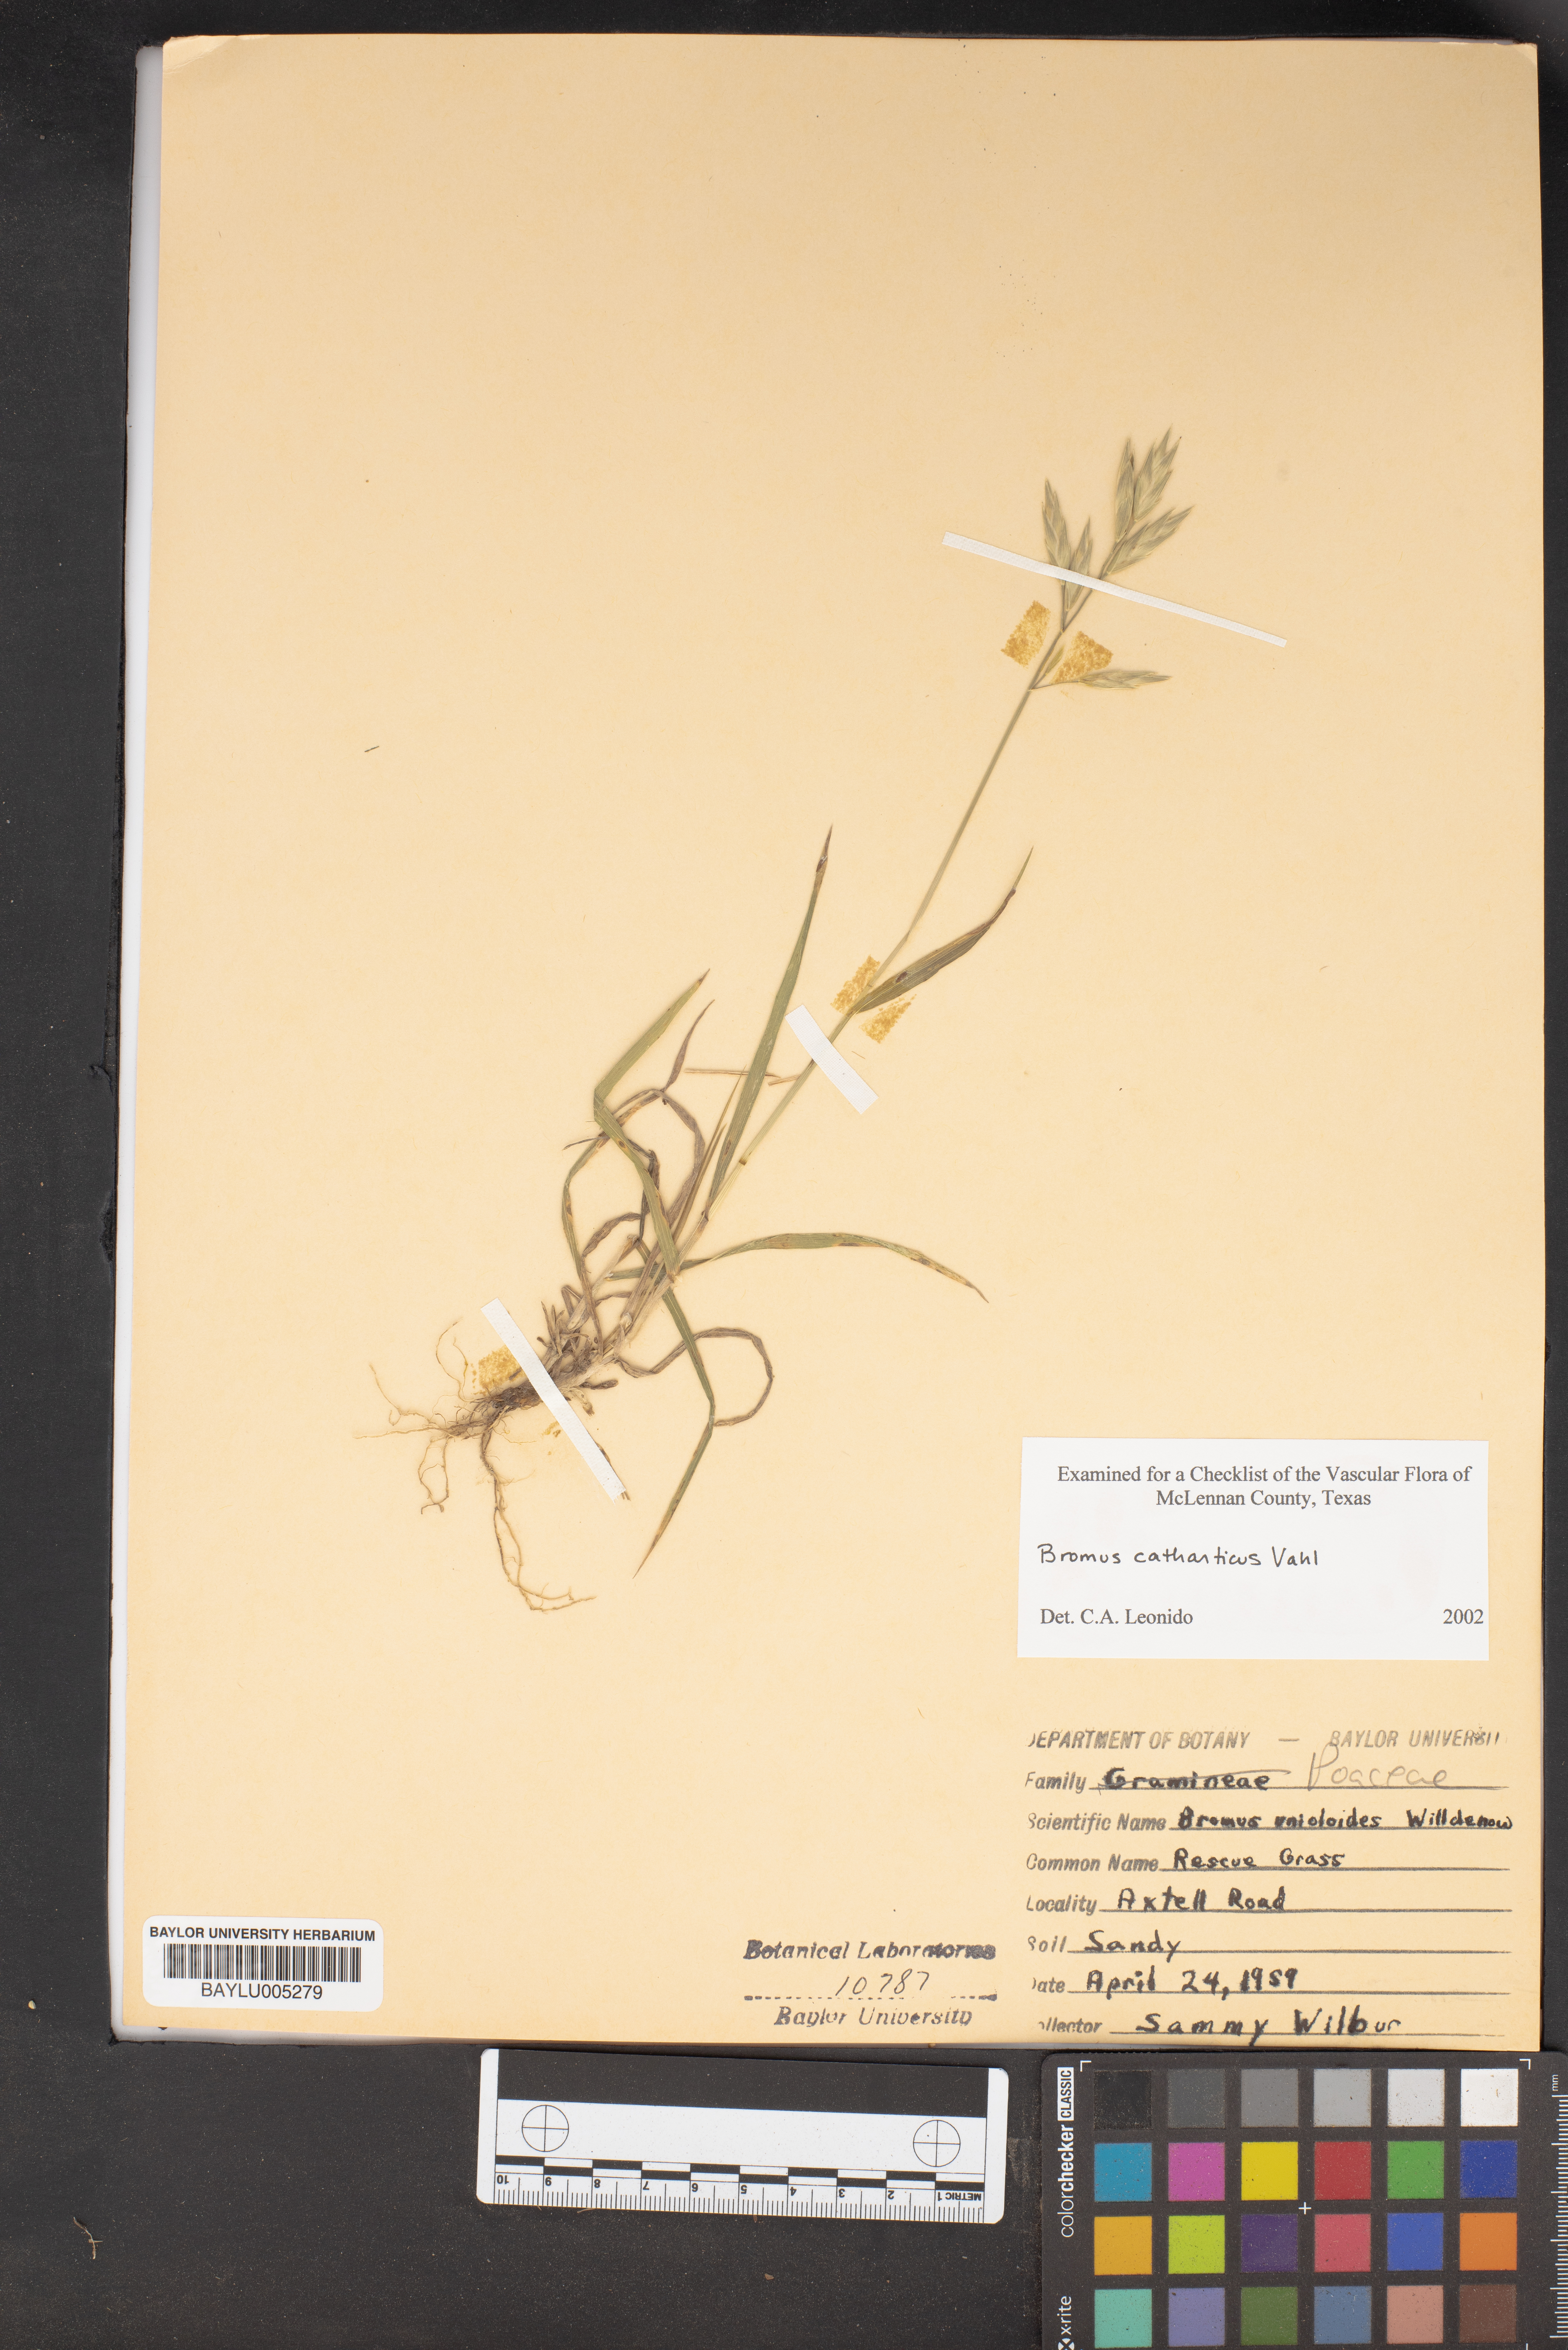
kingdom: Plantae
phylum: Tracheophyta
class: Liliopsida
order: Poales
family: Poaceae
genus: Bromus
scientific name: Bromus catharticus
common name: Rescuegrass
